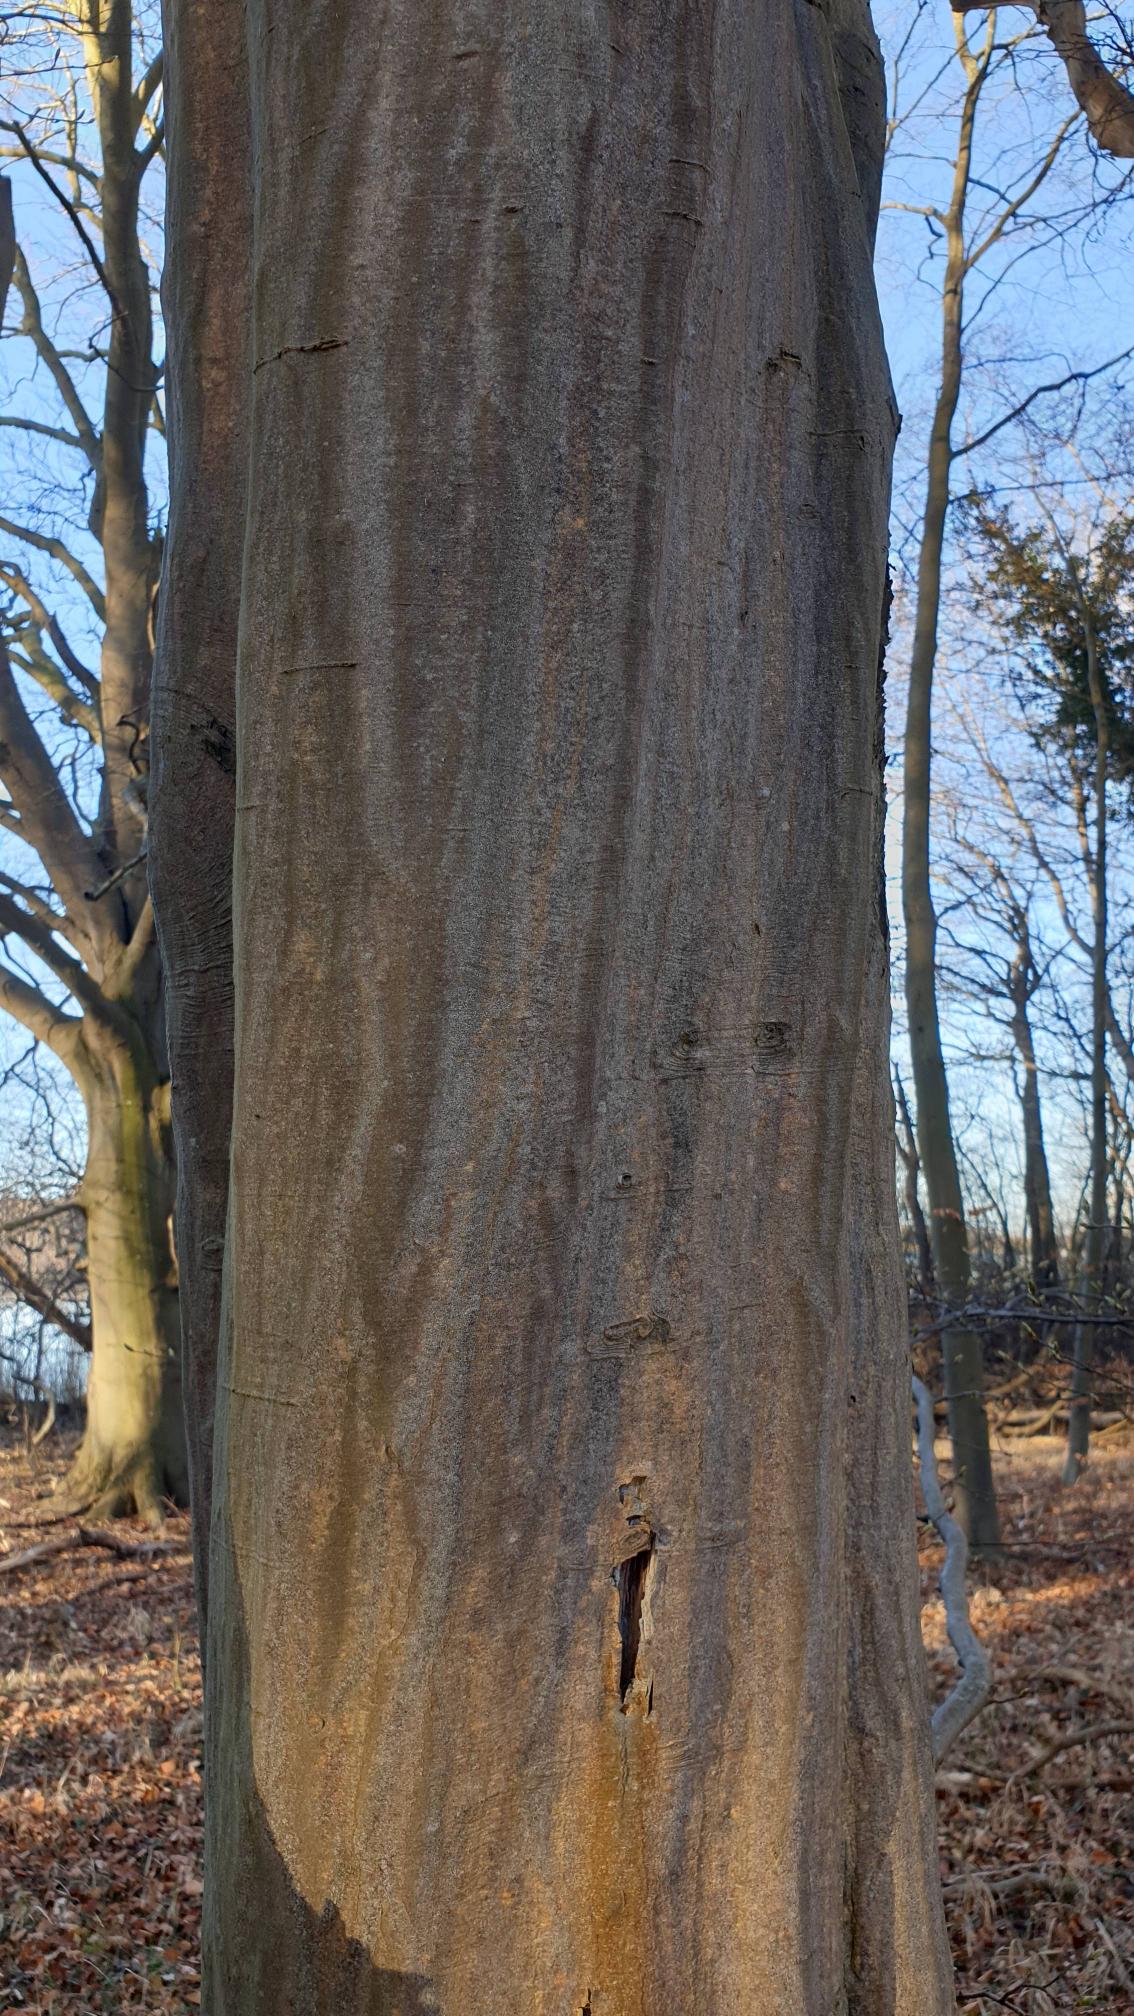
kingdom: Plantae
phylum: Tracheophyta
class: Magnoliopsida
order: Fagales
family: Betulaceae
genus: Carpinus
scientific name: Carpinus betulus
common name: Avnbøg
